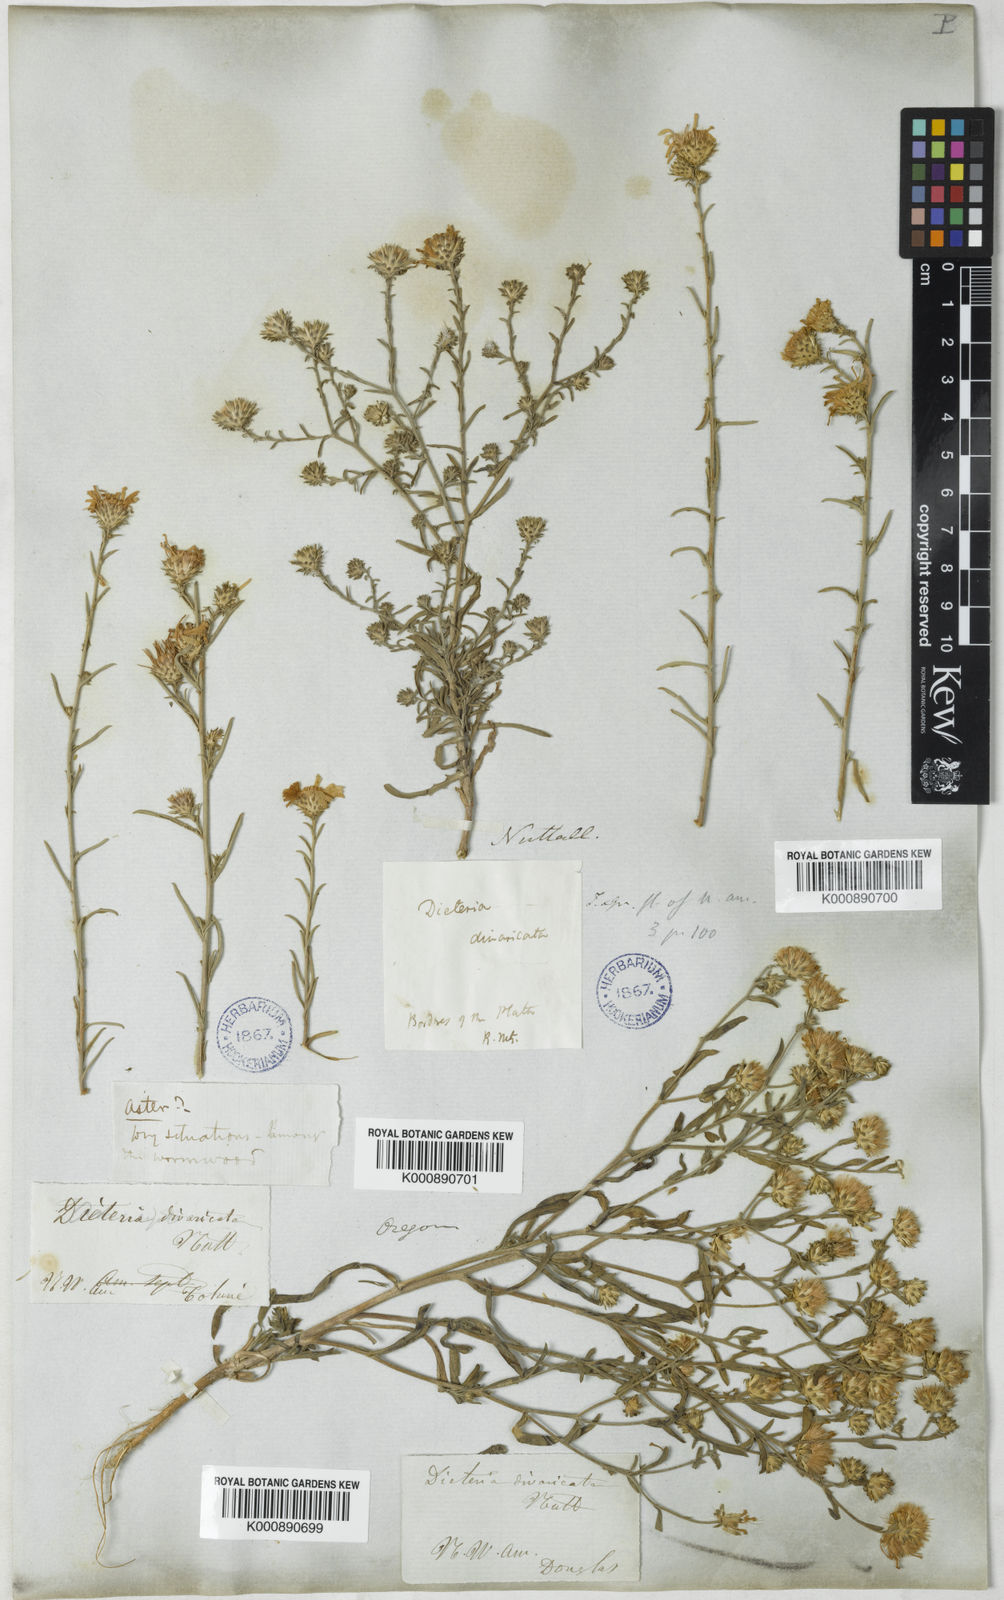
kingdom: Plantae
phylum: Tracheophyta
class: Magnoliopsida
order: Asterales
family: Asteraceae
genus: Dieteria
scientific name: Dieteria canescens
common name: Hoary-aster
